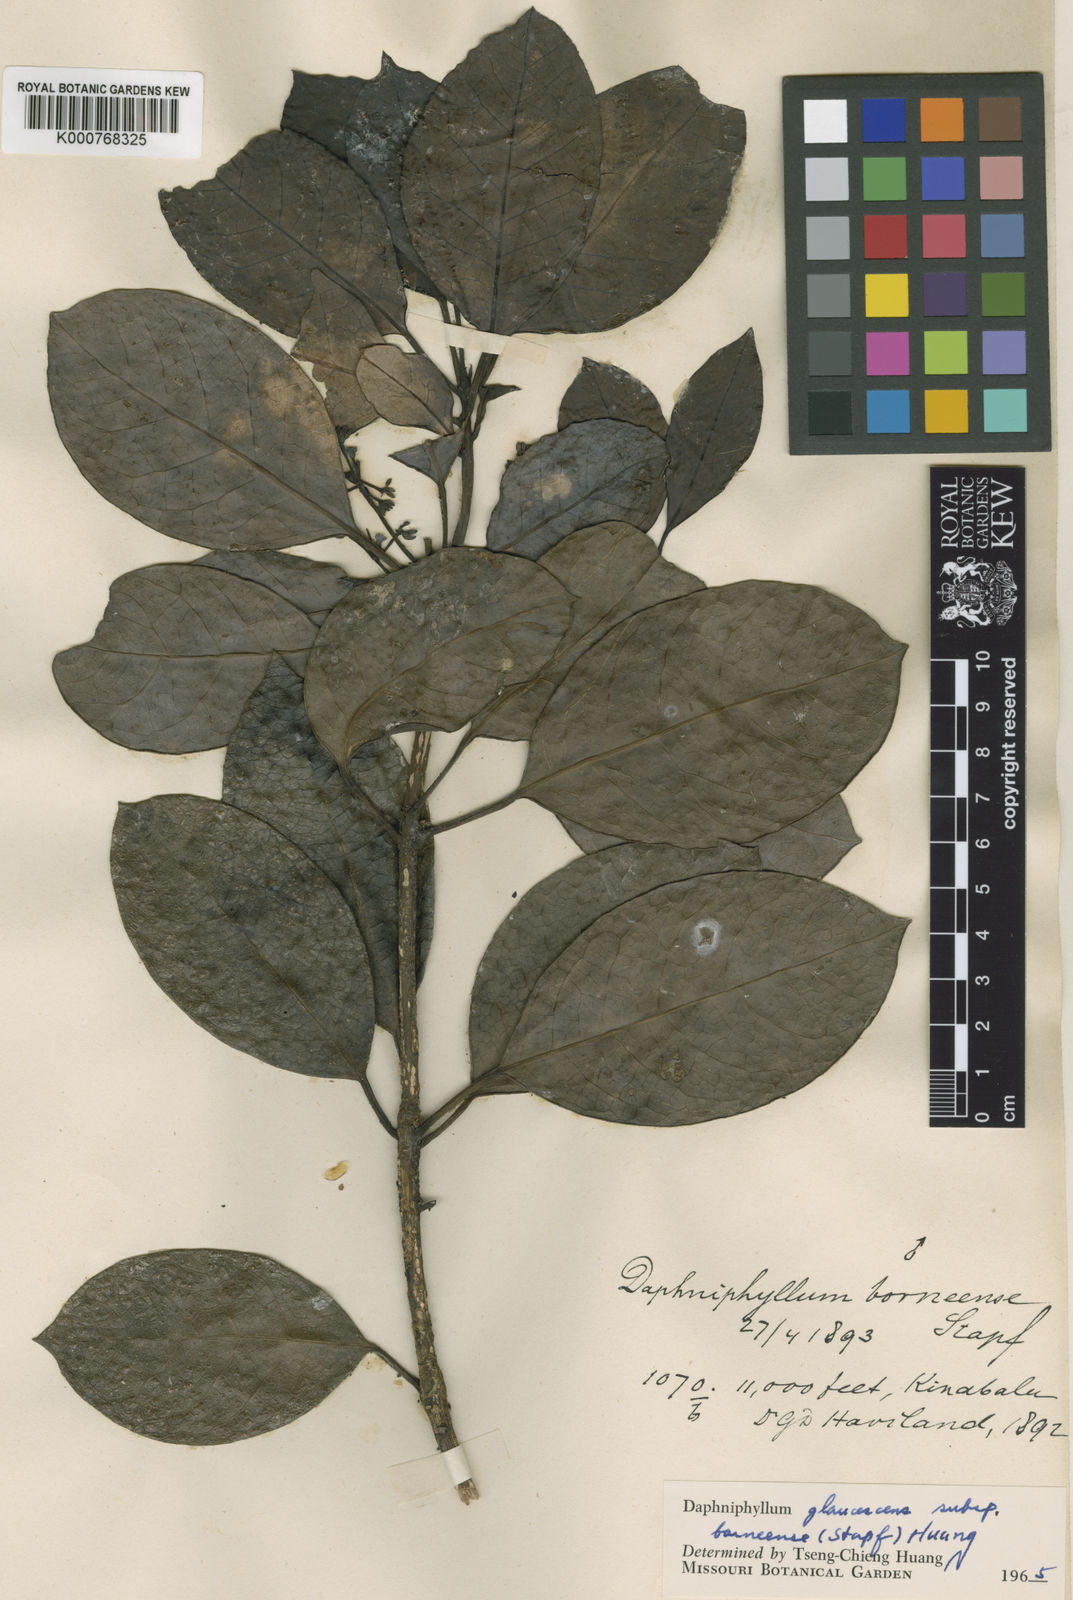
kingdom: Plantae
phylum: Tracheophyta
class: Magnoliopsida
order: Saxifragales
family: Daphniphyllaceae
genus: Daphniphyllum
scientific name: Daphniphyllum borneense
